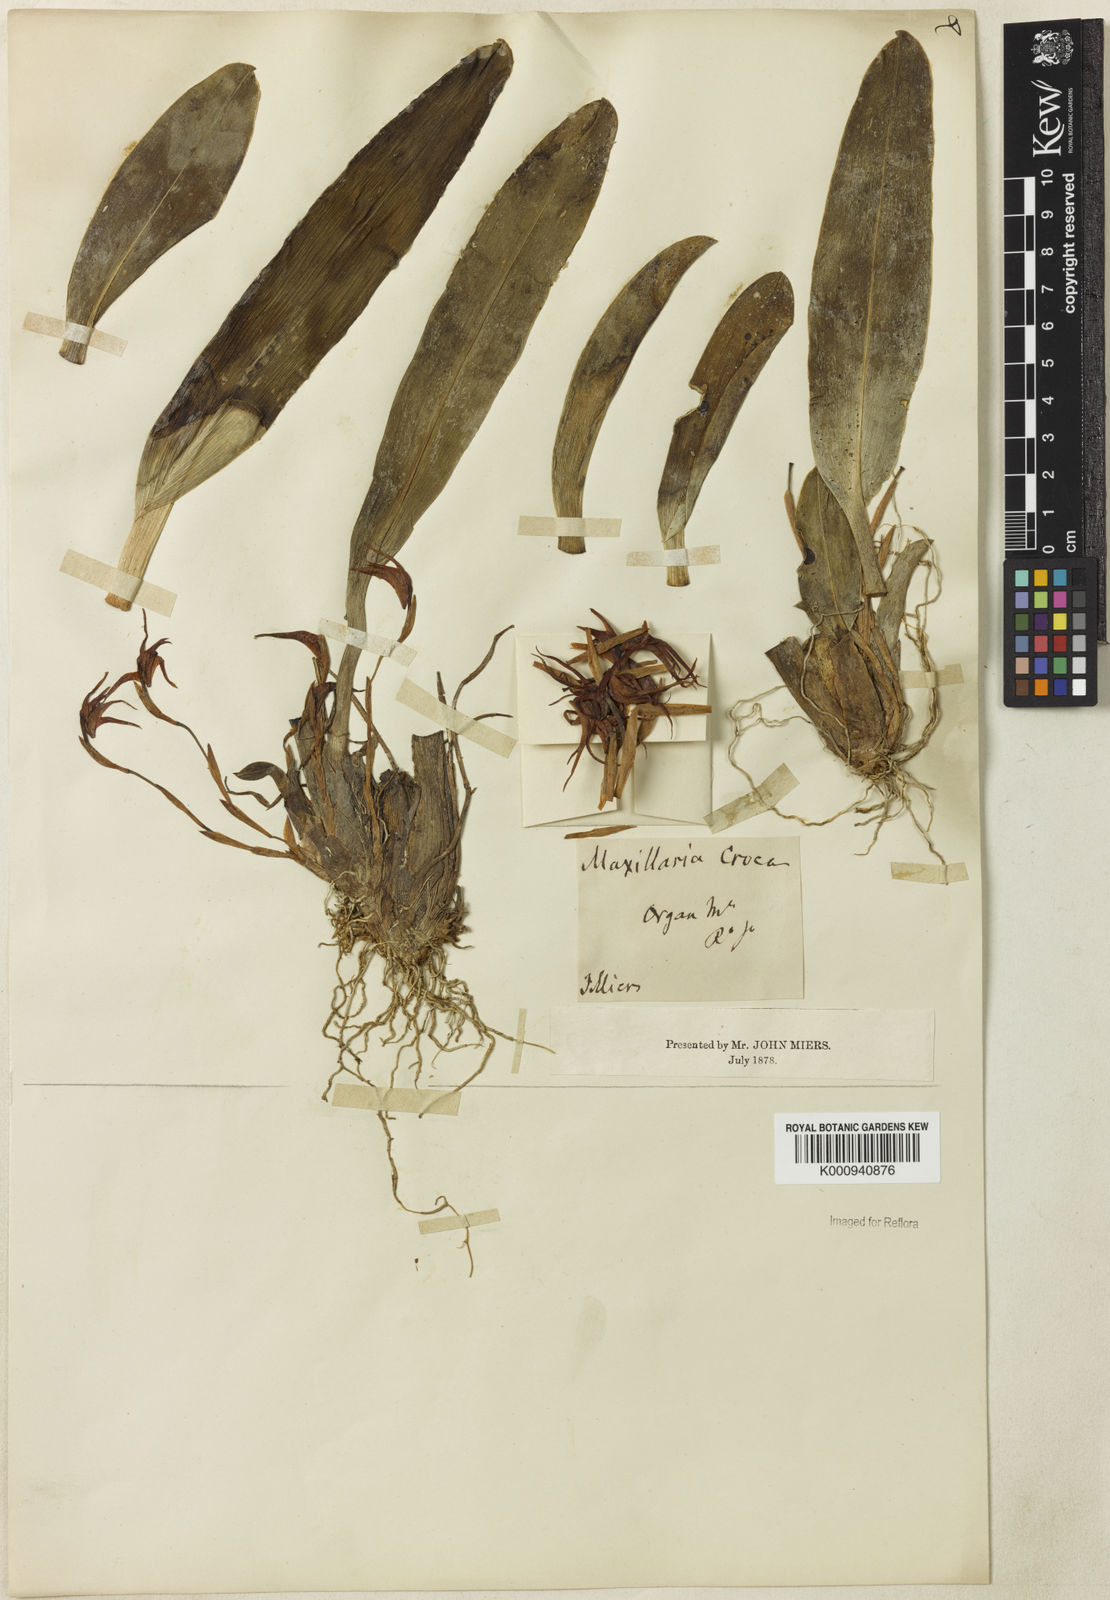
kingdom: Plantae
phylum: Tracheophyta
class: Liliopsida
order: Asparagales
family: Orchidaceae
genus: Maxillaria
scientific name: Maxillaria crocea
